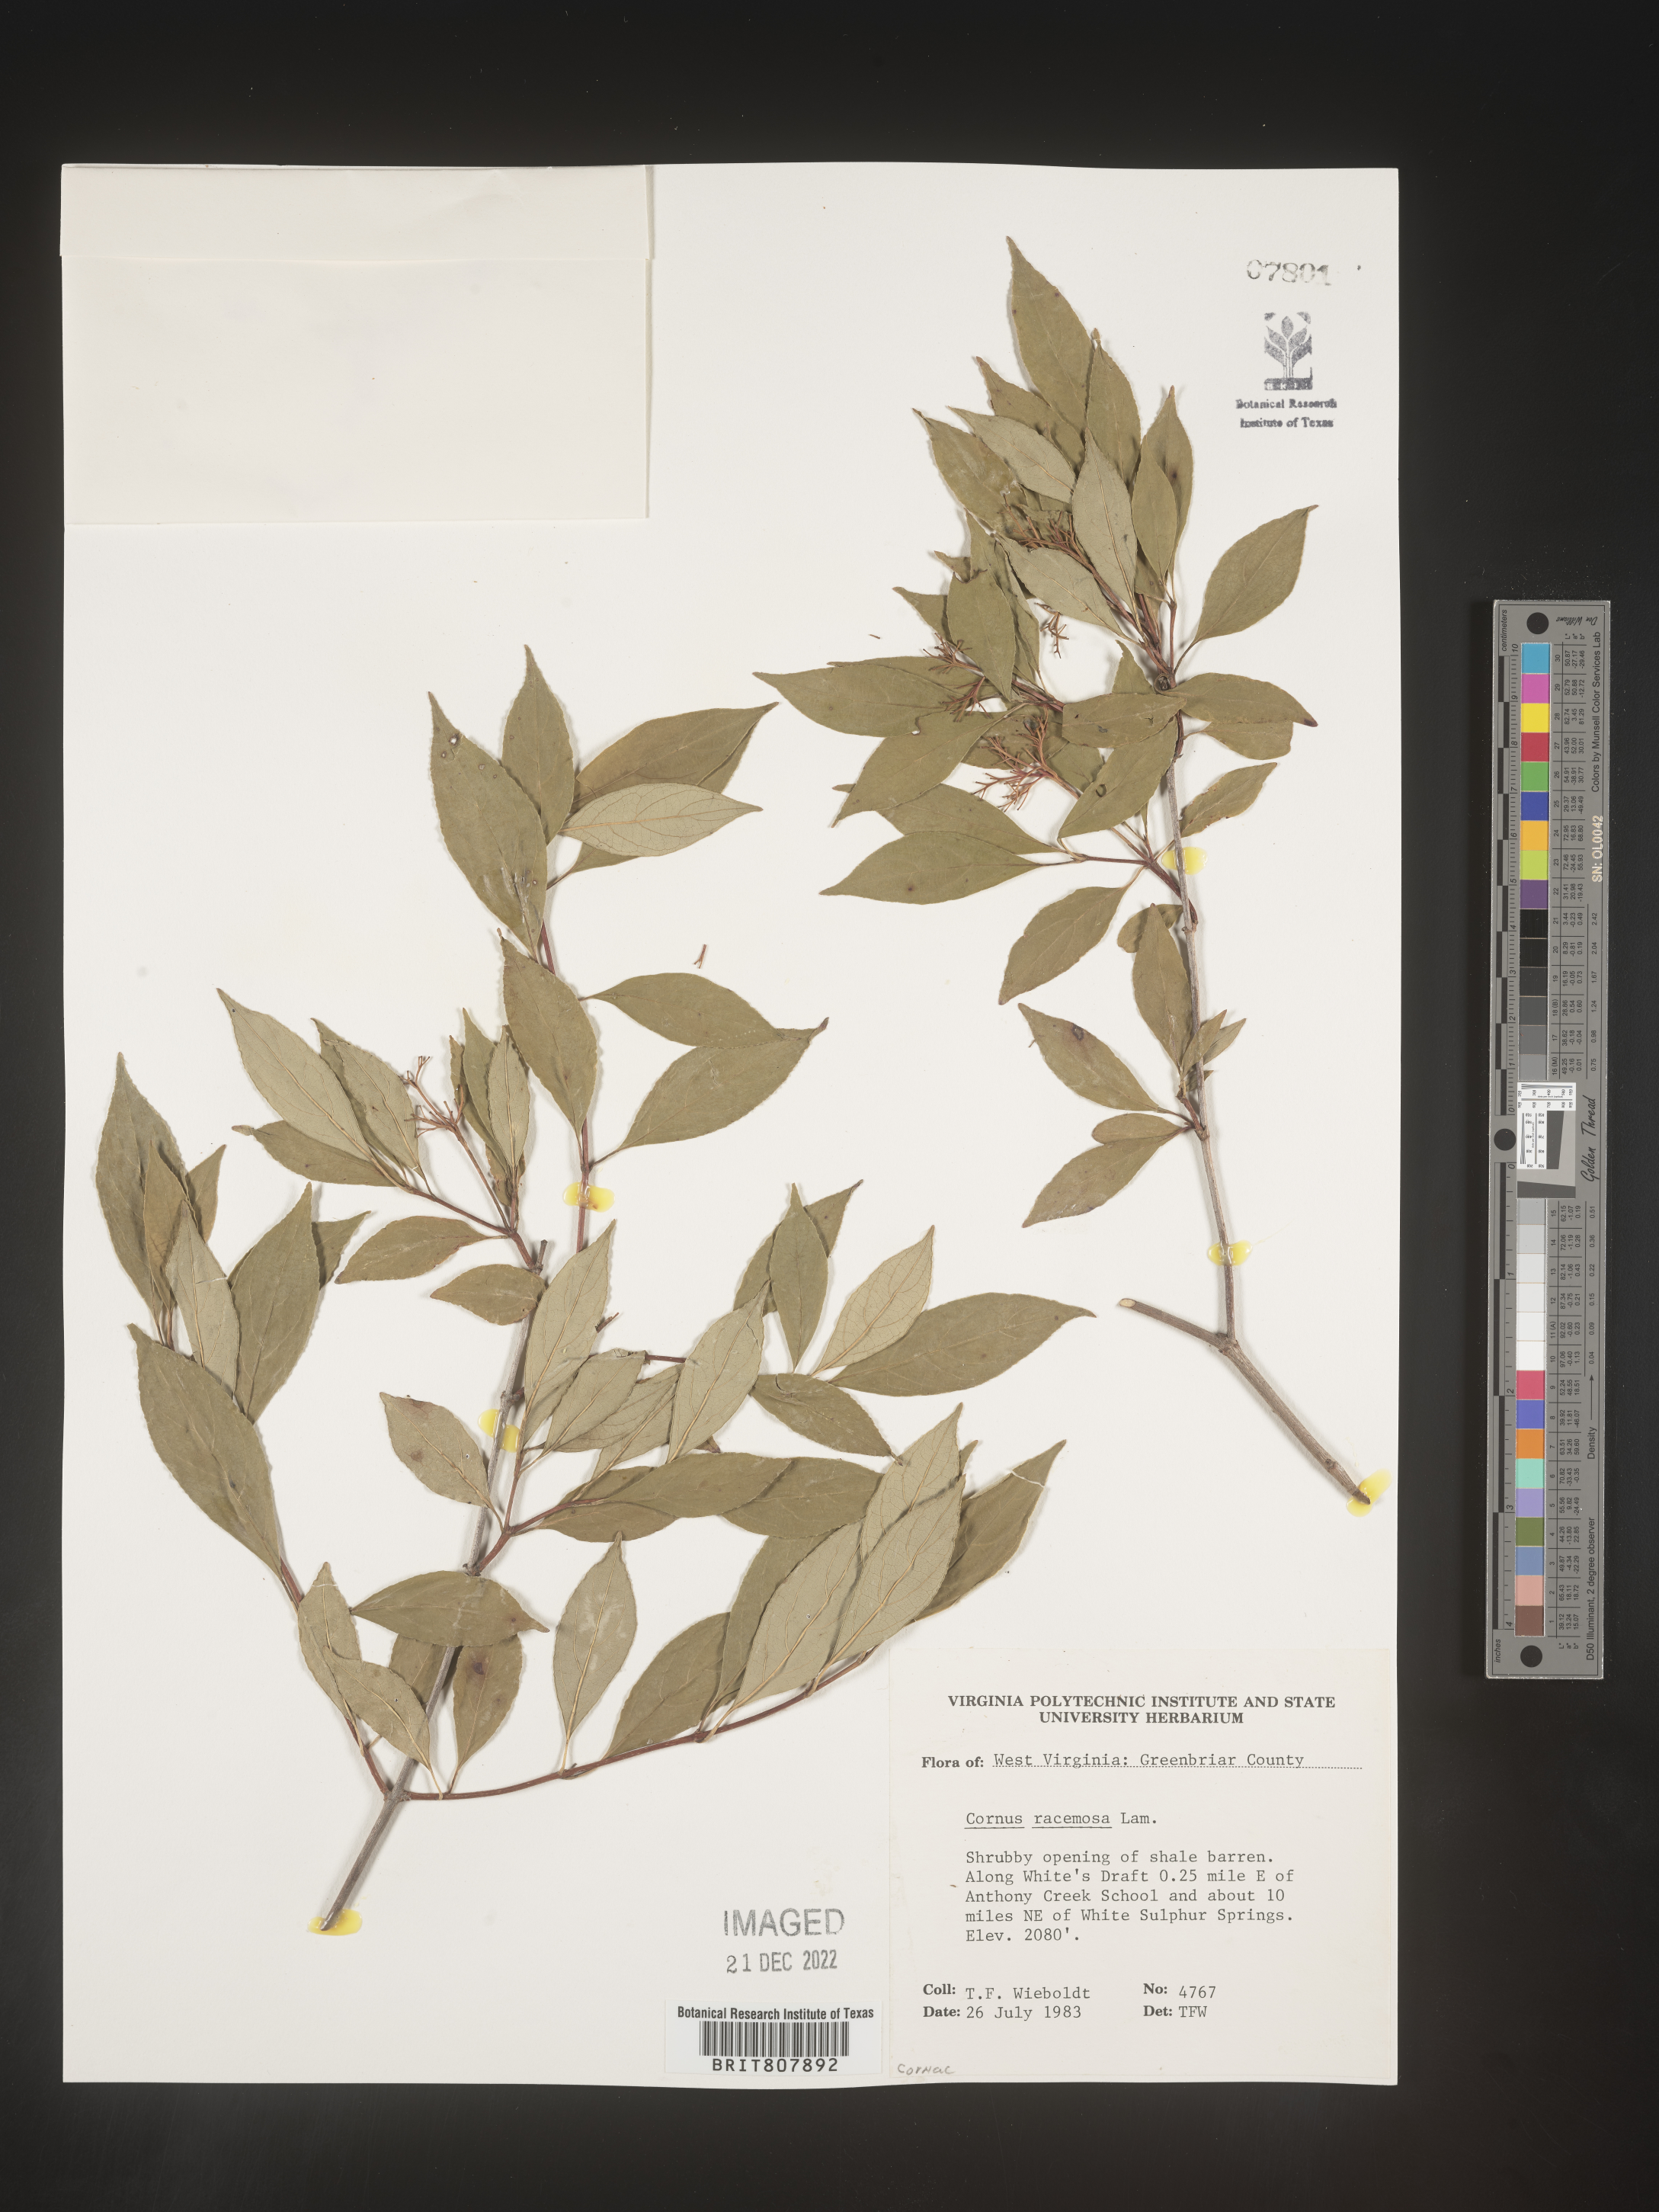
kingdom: Plantae
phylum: Tracheophyta
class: Magnoliopsida
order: Cornales
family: Cornaceae
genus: Cornus
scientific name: Cornus racemosa
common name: Panicled dogwood
